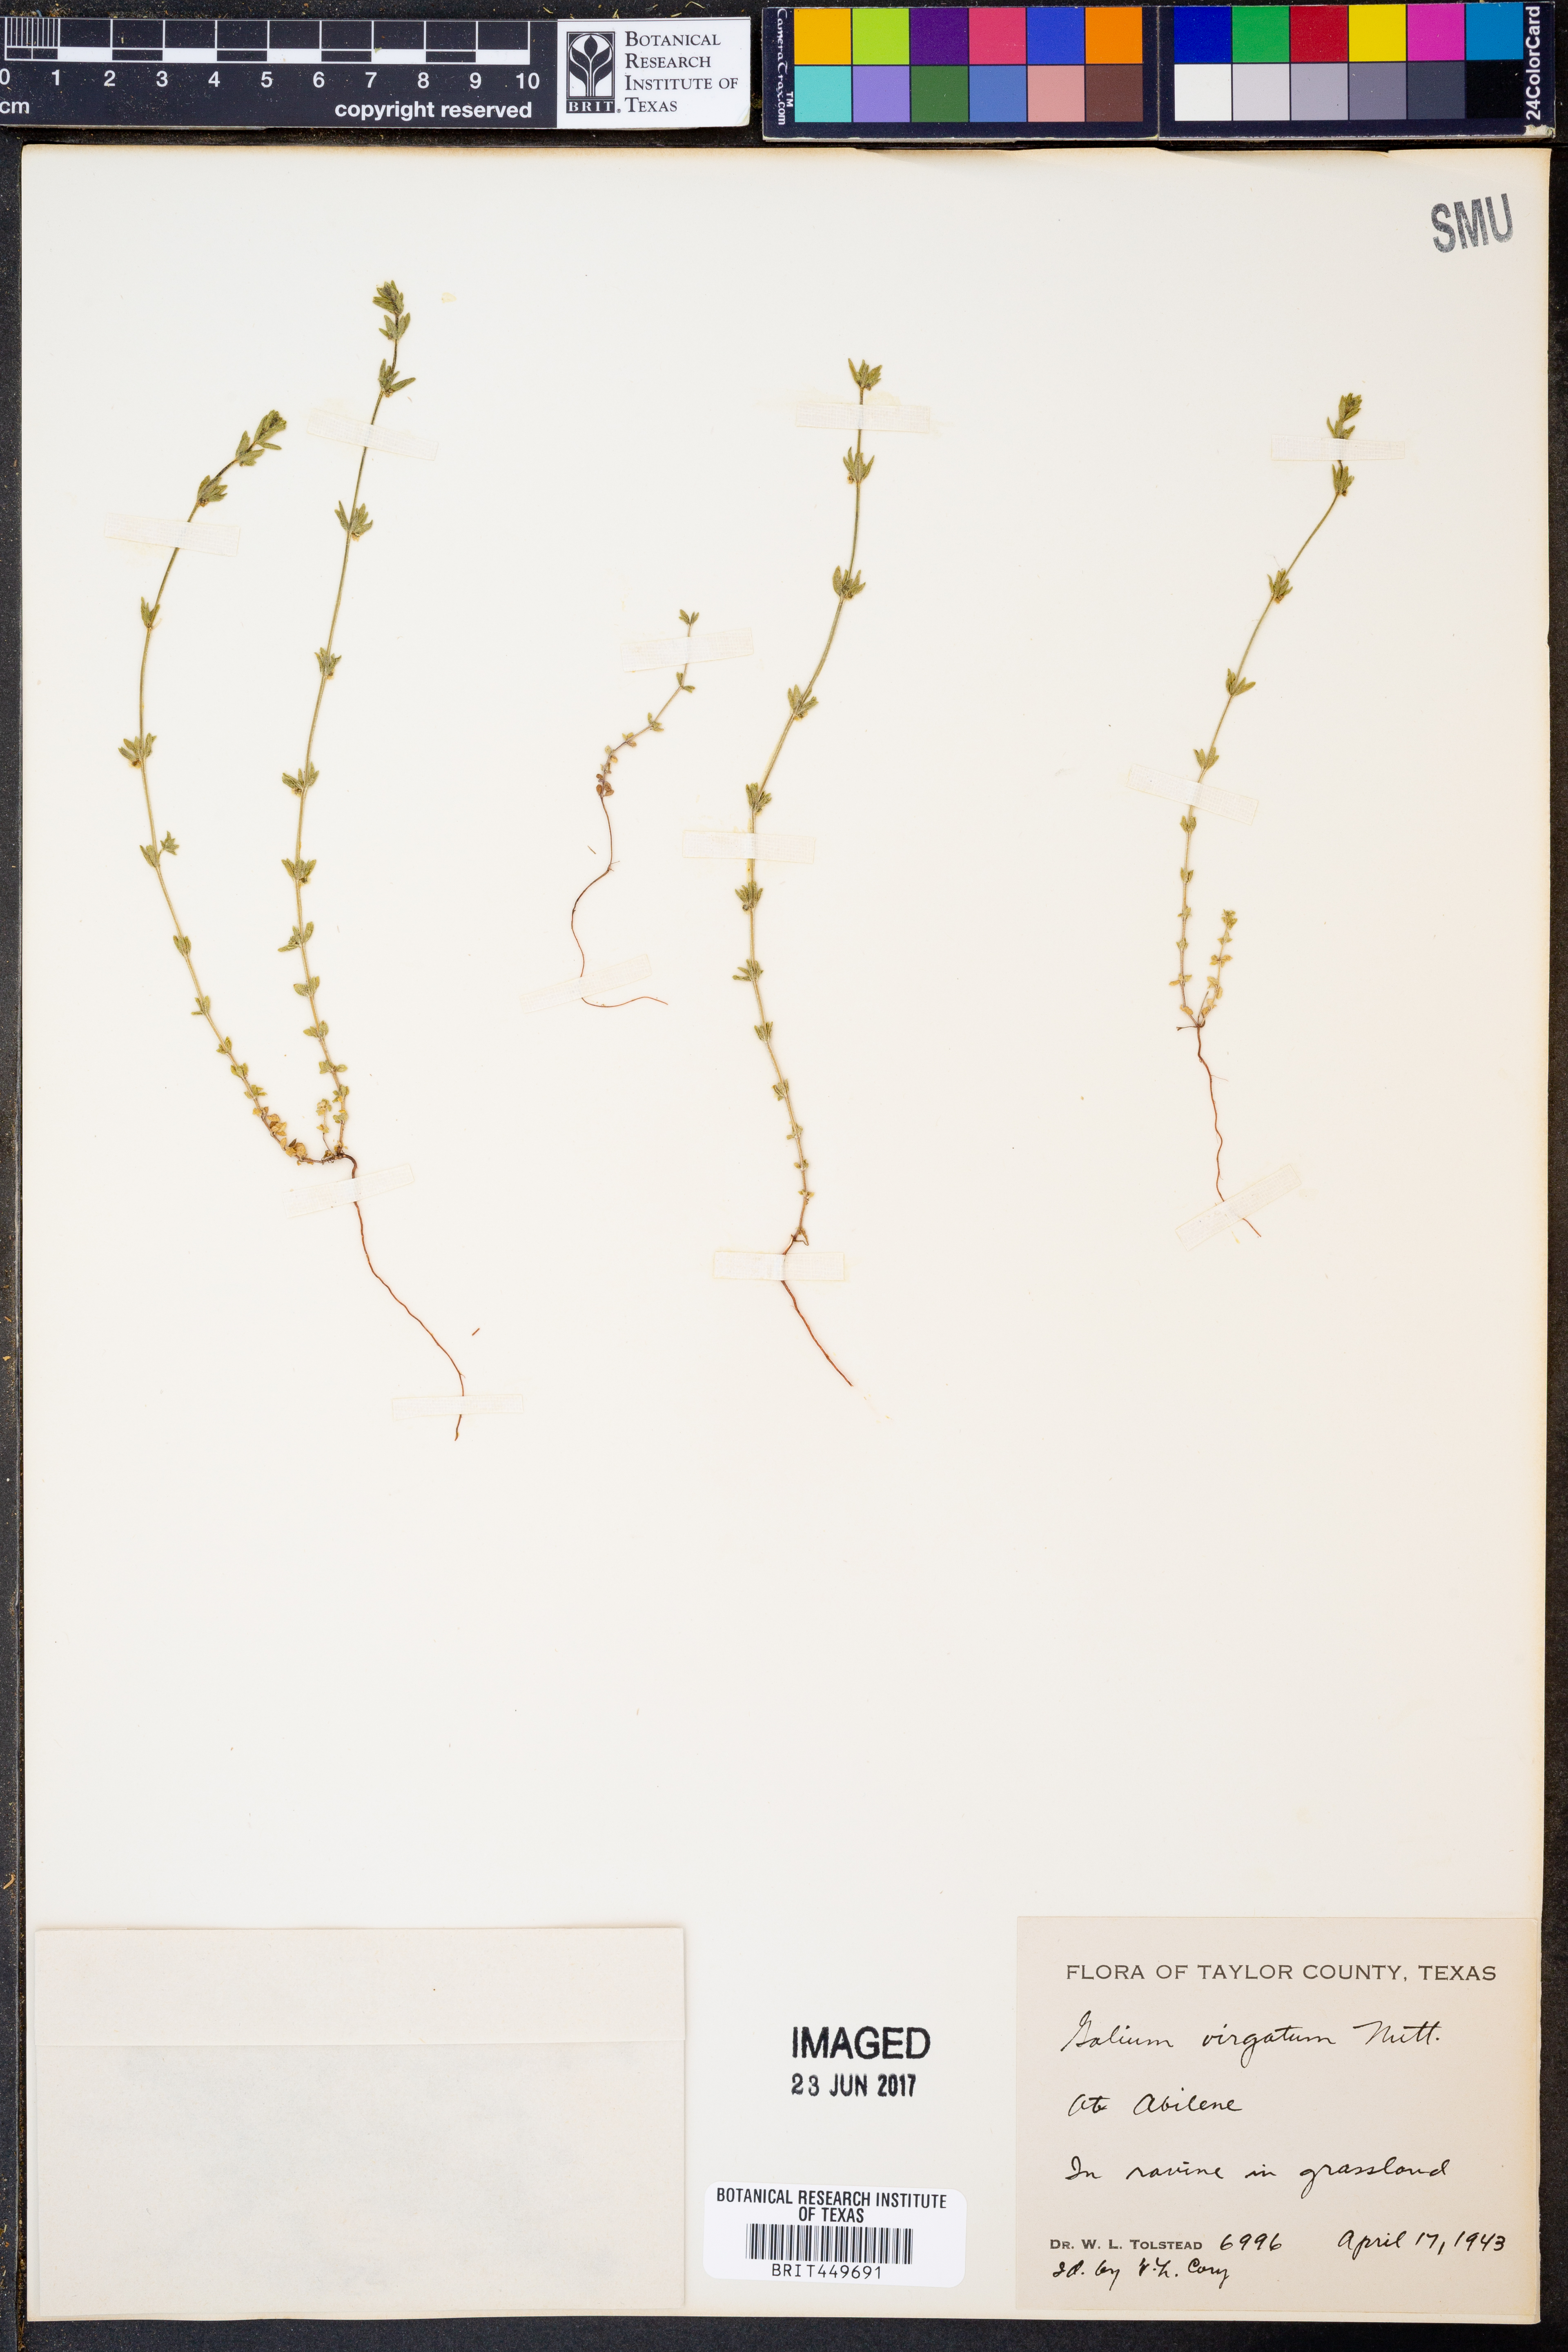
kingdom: Plantae
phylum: Tracheophyta
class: Magnoliopsida
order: Gentianales
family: Rubiaceae
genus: Galium
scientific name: Galium virgatum
